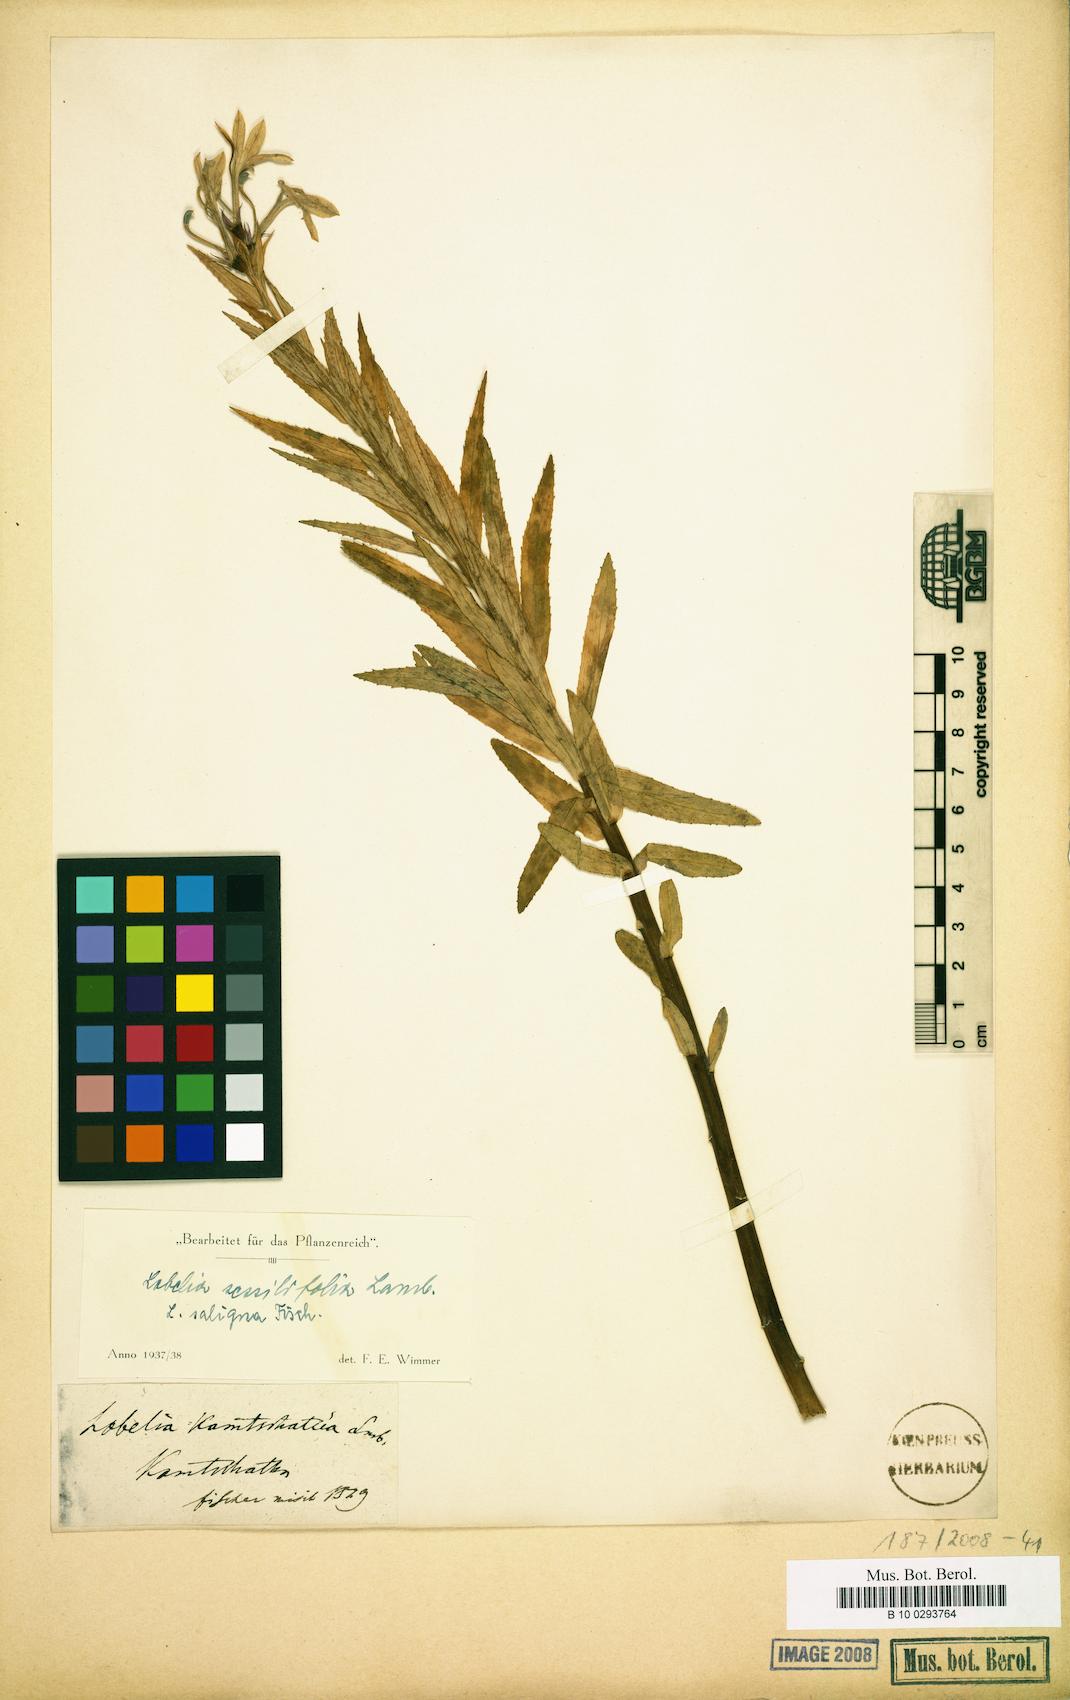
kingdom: Plantae
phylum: Tracheophyta
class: Magnoliopsida
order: Asterales
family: Campanulaceae
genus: Lobelia
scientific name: Lobelia sessilifolia
